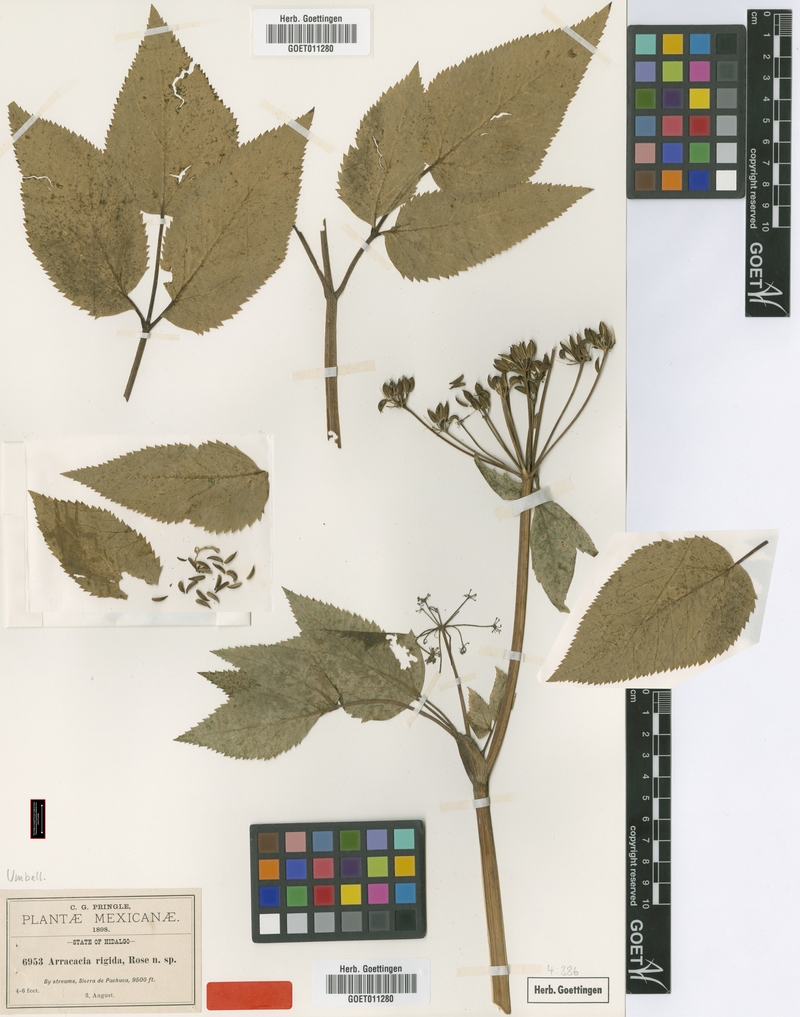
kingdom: Plantae
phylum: Tracheophyta
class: Magnoliopsida
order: Apiales
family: Apiaceae
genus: Arracacia
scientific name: Arracacia rigida
